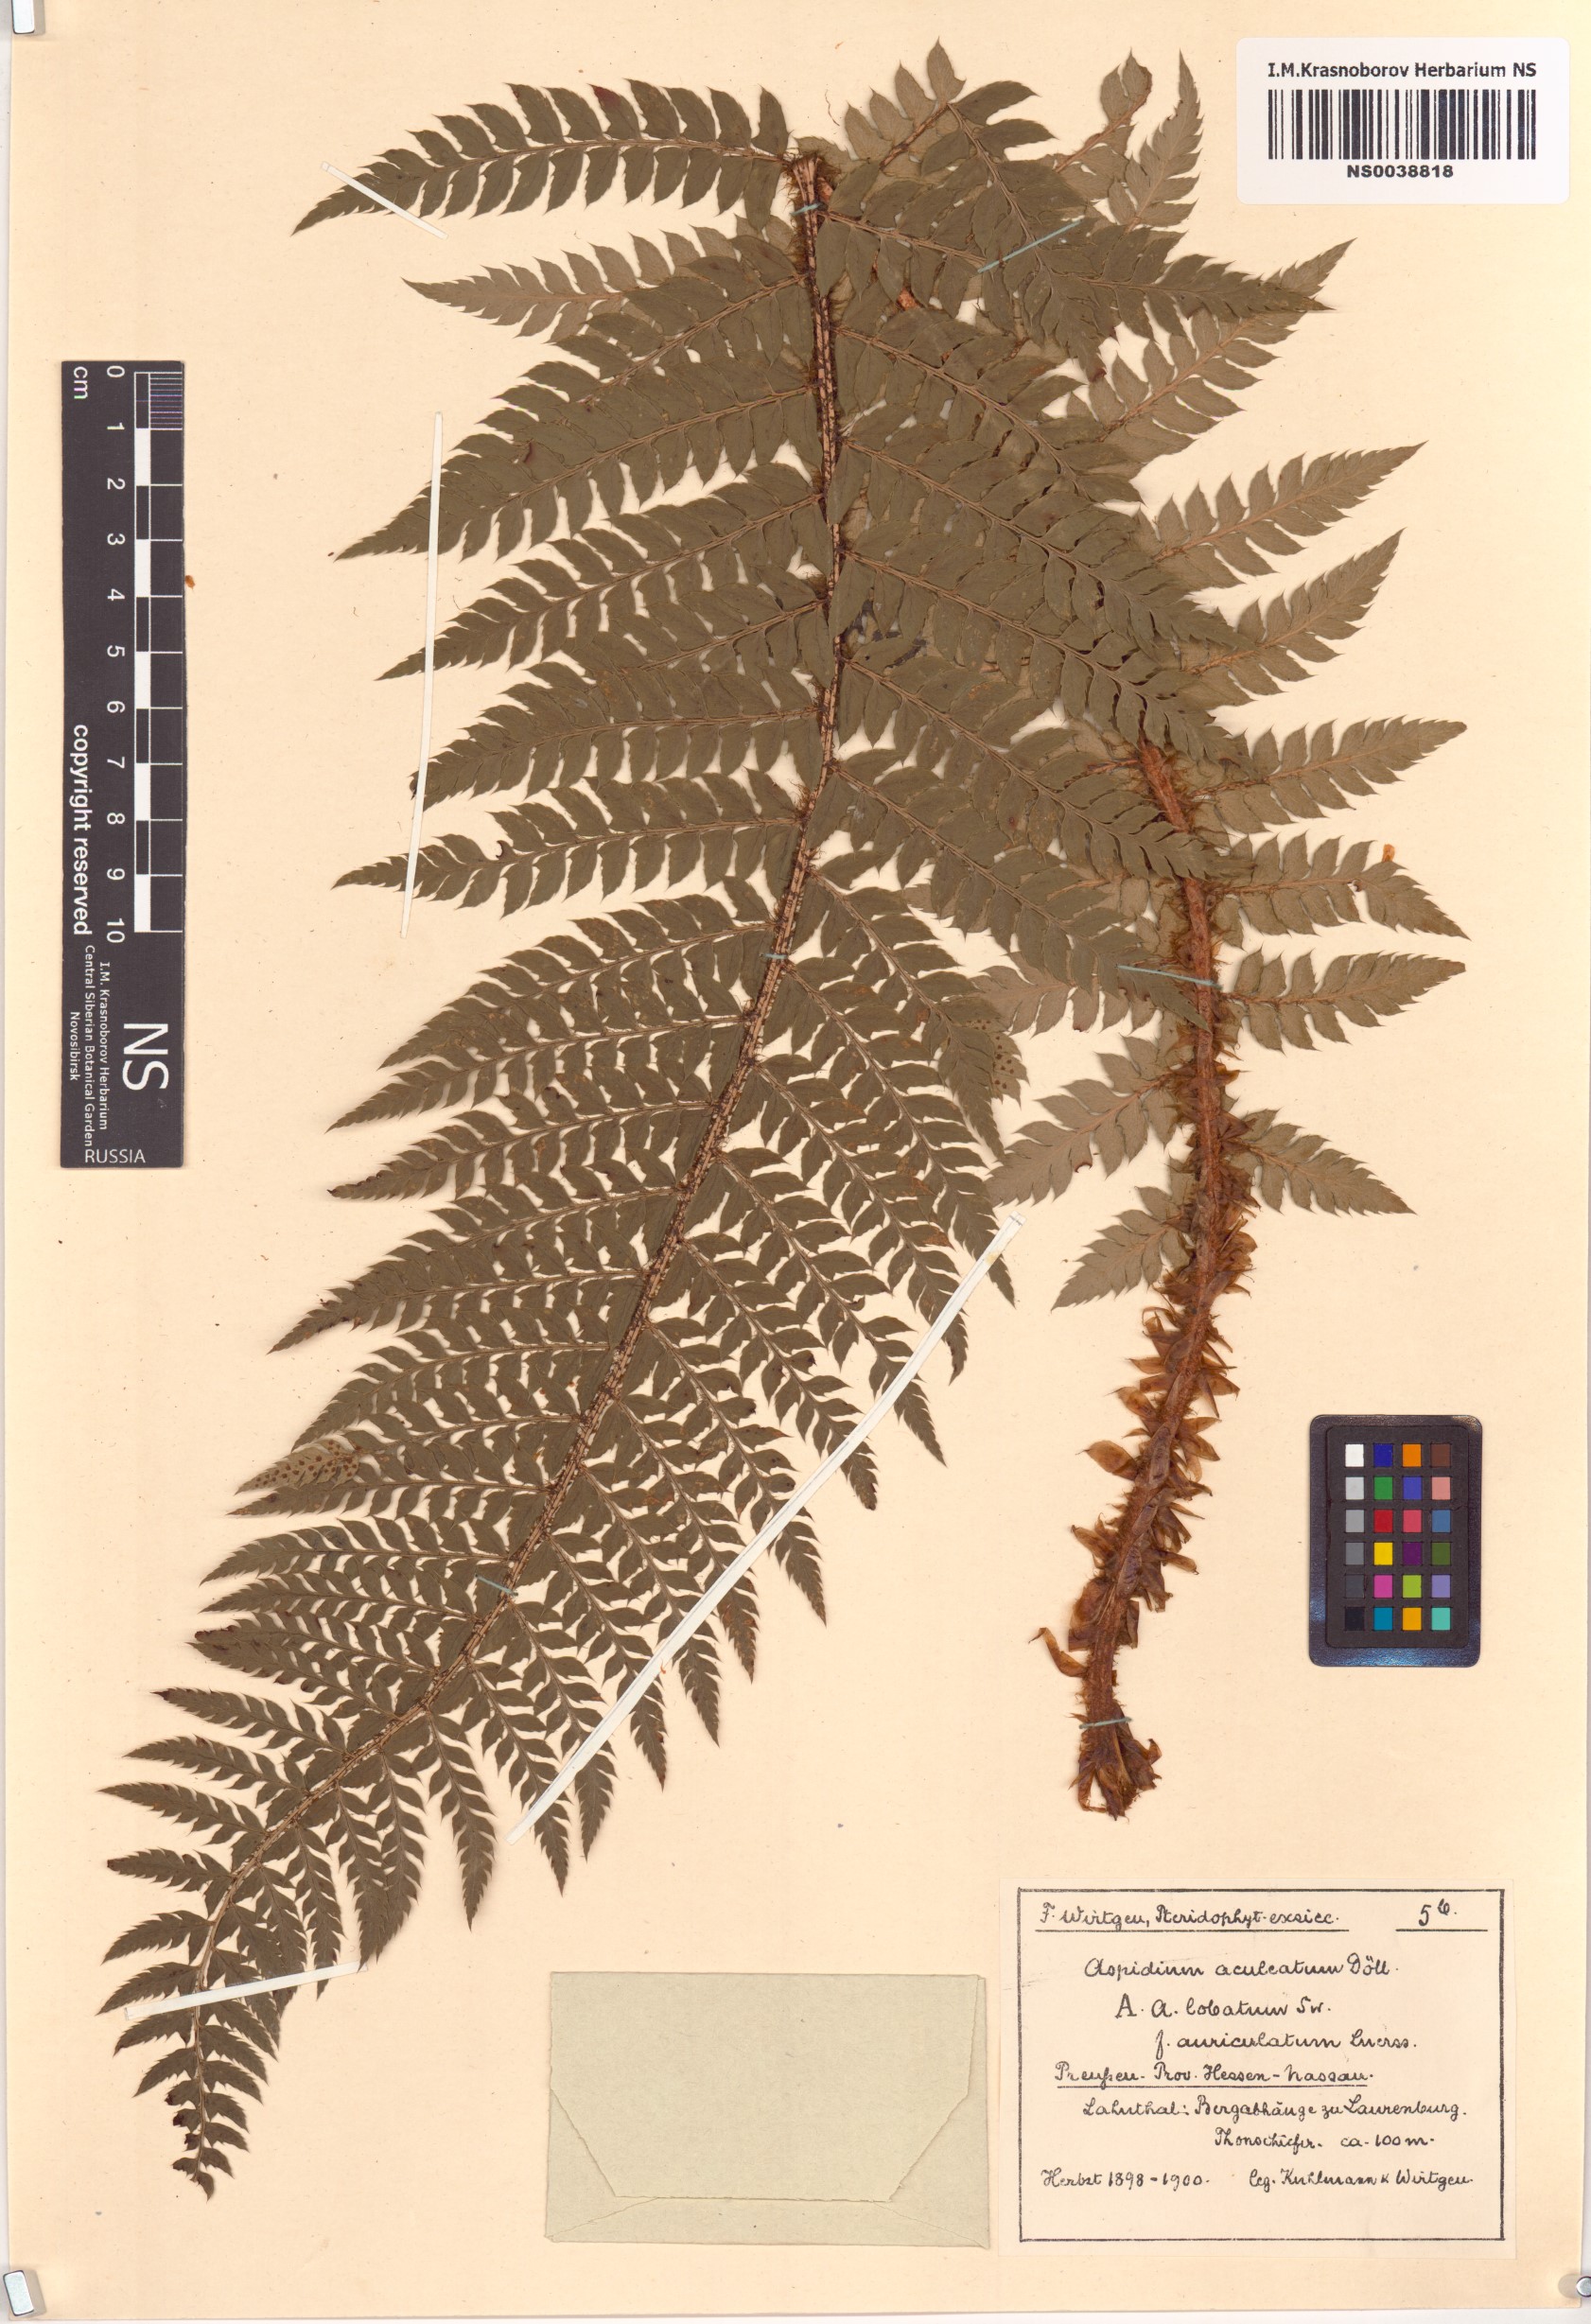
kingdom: Plantae
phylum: Tracheophyta
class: Polypodiopsida
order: Polypodiales
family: Dryopteridaceae
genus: Polystichum
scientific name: Polystichum aculeatum
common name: Hard shield-fern
